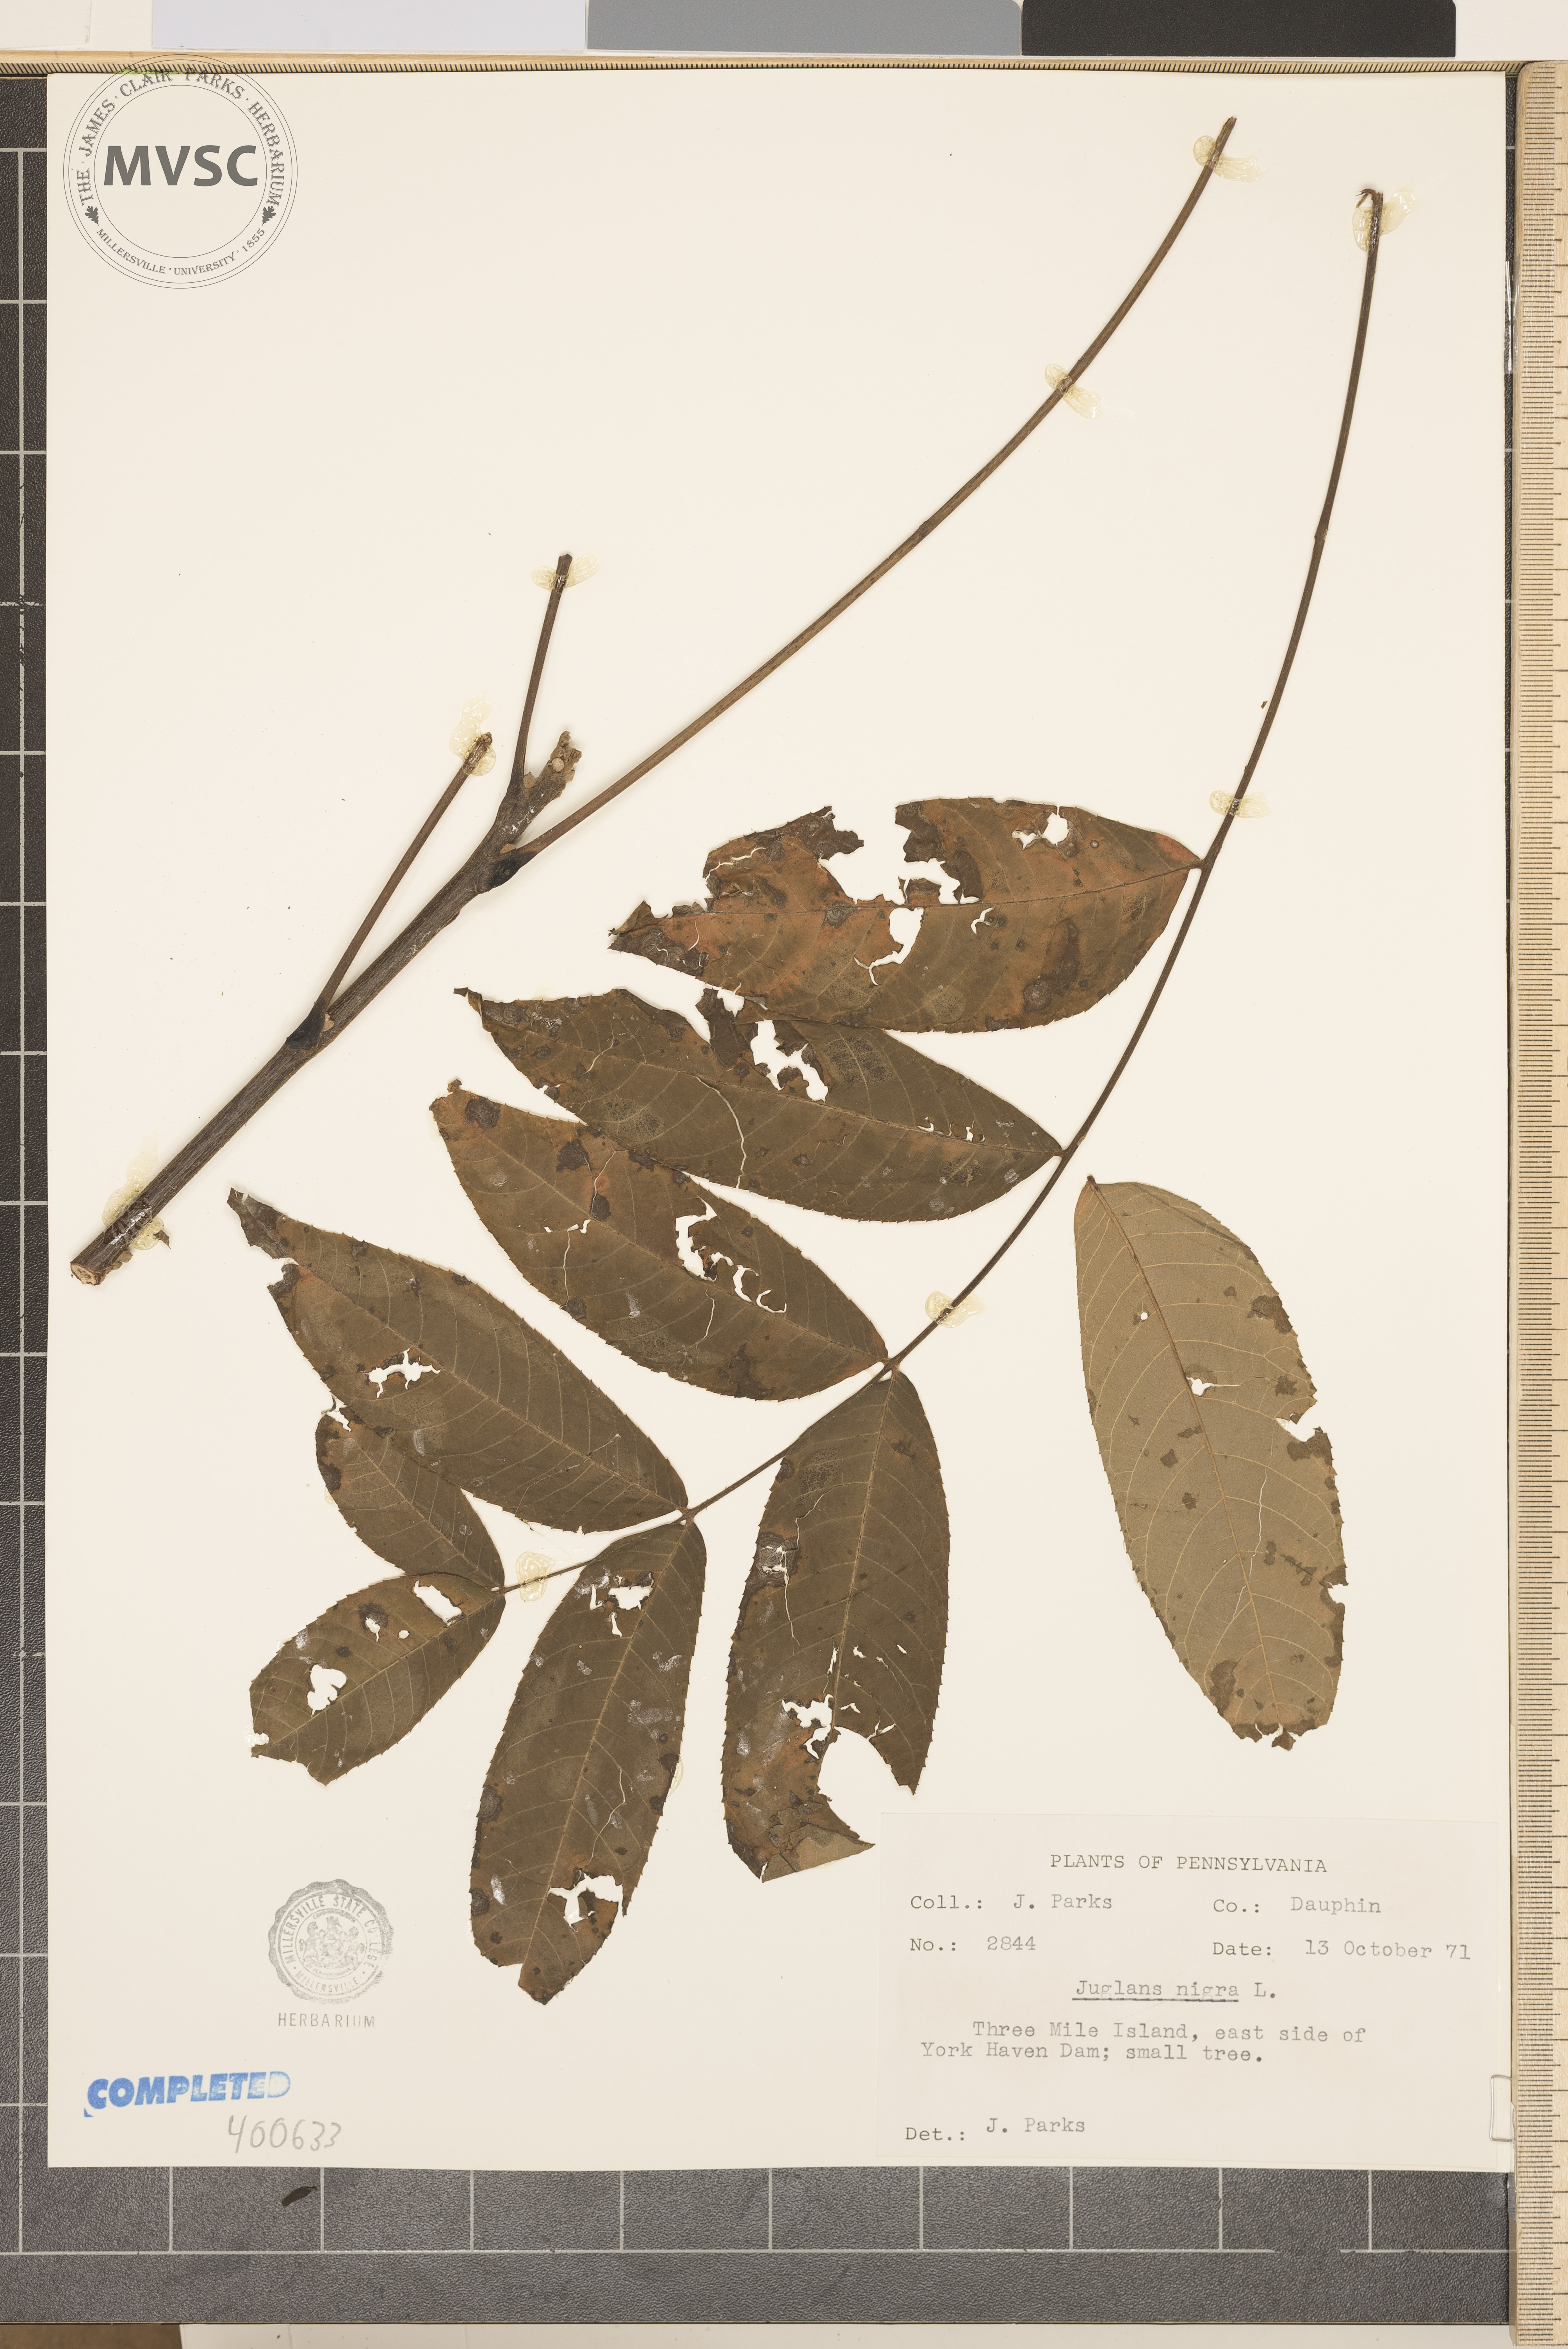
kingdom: Plantae
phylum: Tracheophyta
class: Magnoliopsida
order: Fagales
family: Juglandaceae
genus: Juglans
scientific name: Juglans nigra
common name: walnut
